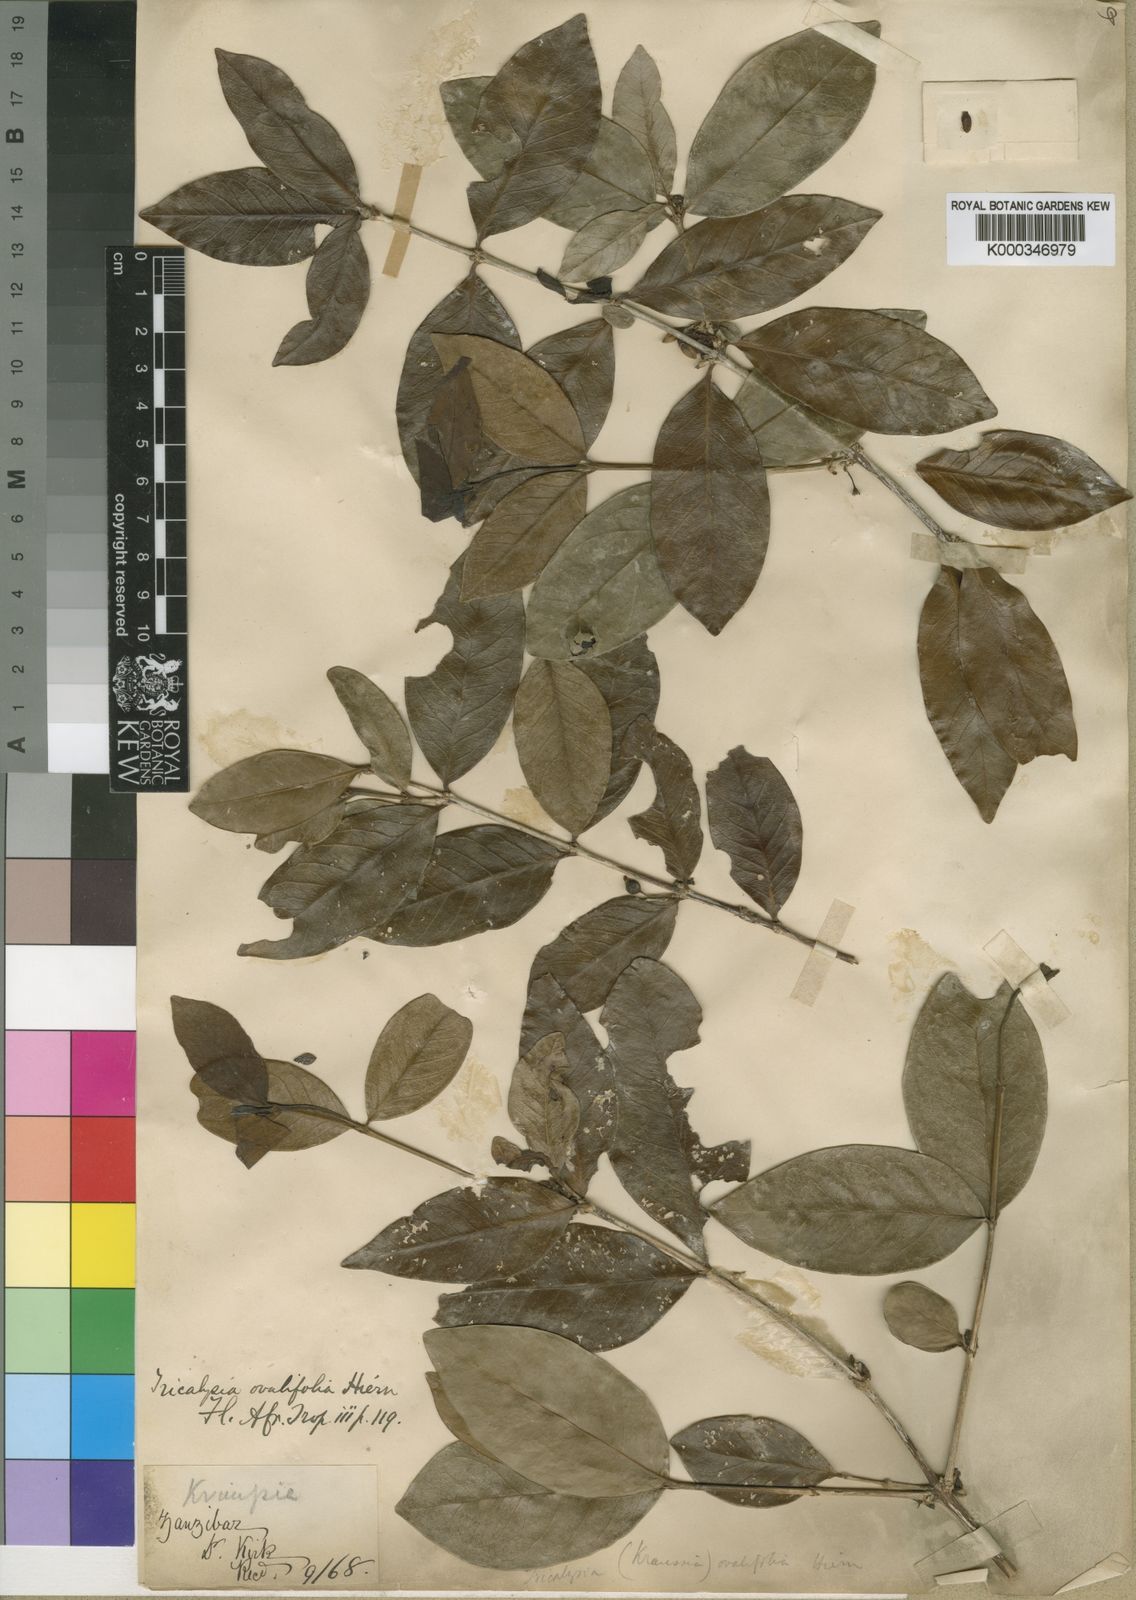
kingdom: Plantae
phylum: Tracheophyta
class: Magnoliopsida
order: Gentianales
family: Rubiaceae
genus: Empogona
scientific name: Empogona ovalifolia
